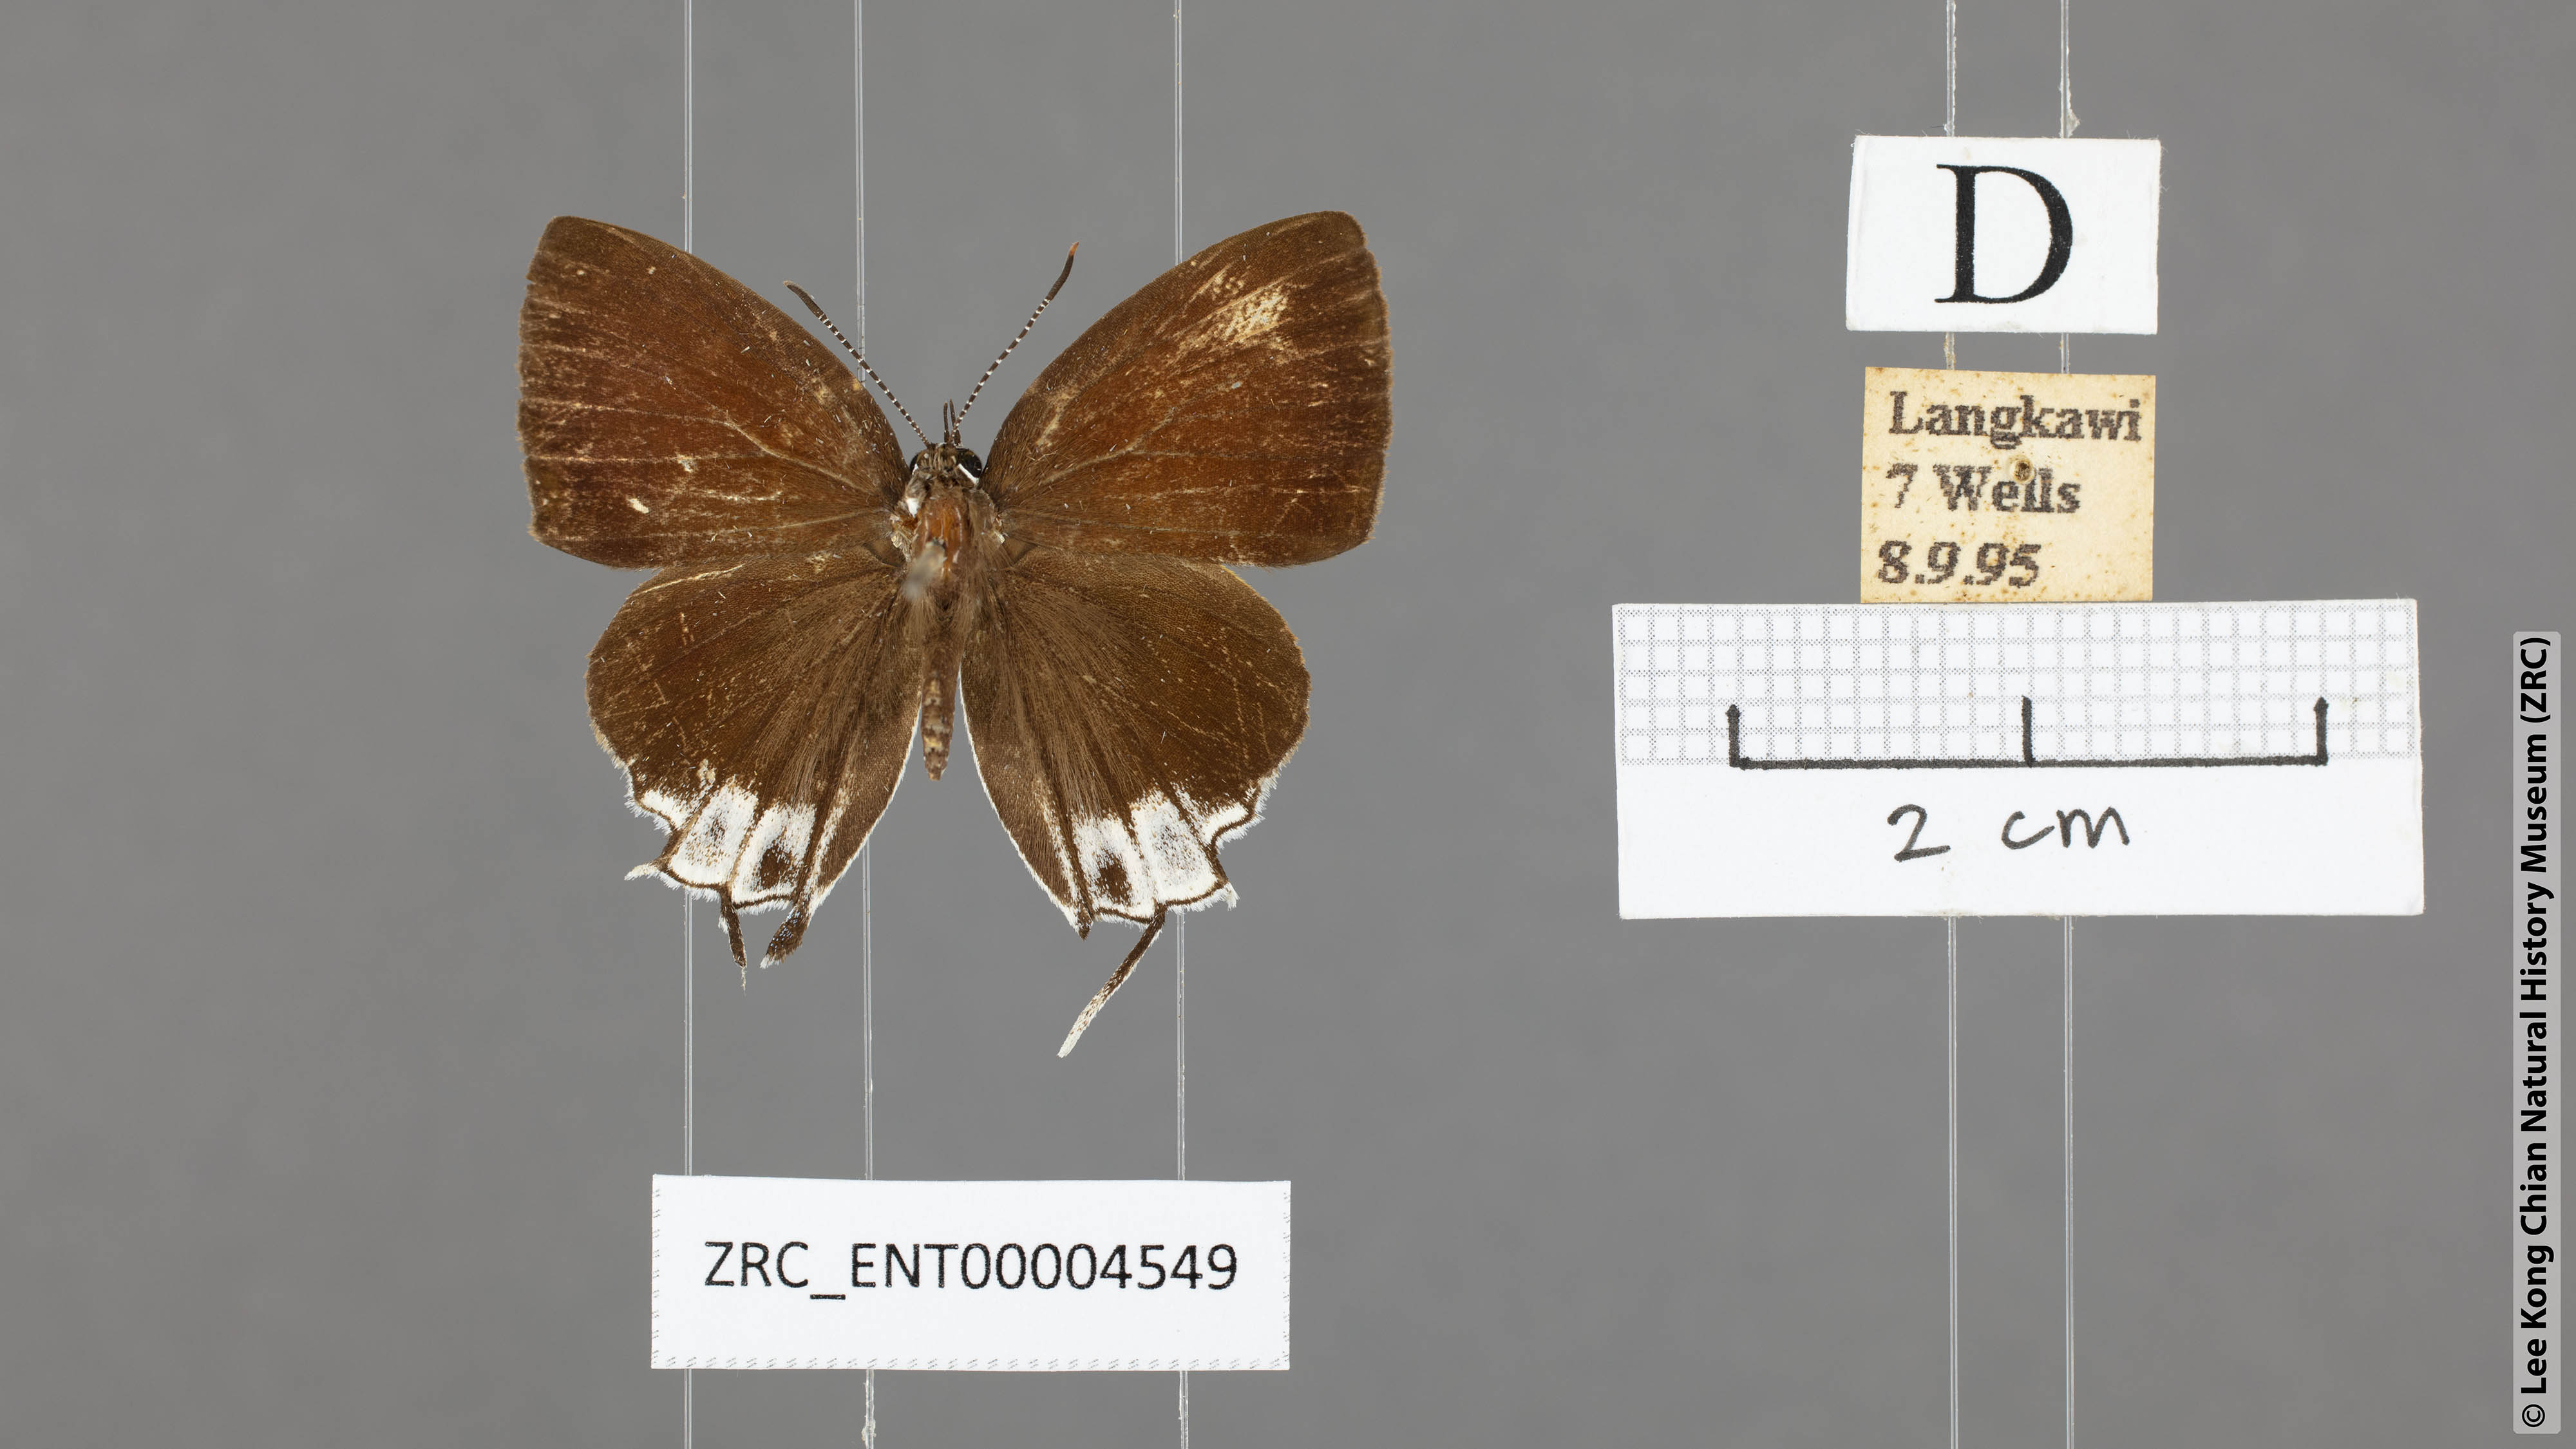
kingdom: Animalia
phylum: Arthropoda
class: Insecta
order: Lepidoptera
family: Lycaenidae
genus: Sithon
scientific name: Sithon nedymond
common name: Plush
